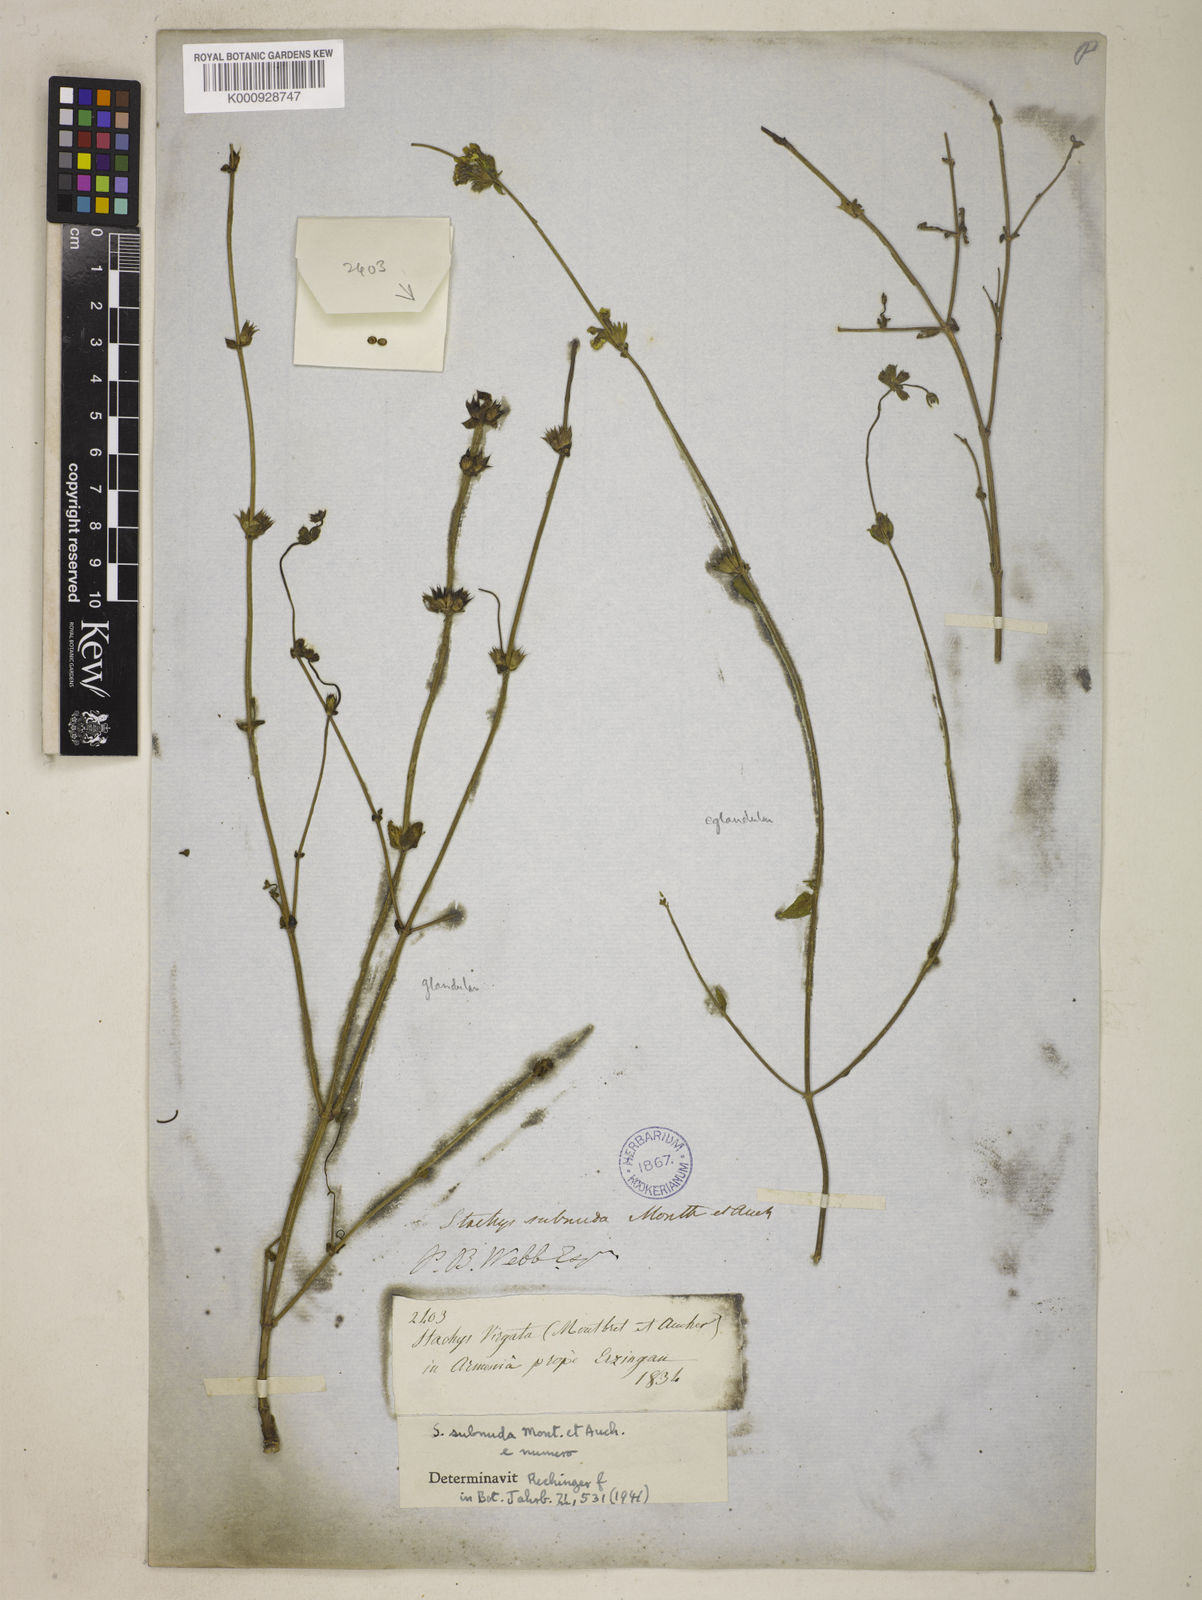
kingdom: Plantae
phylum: Tracheophyta
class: Magnoliopsida
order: Lamiales
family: Lamiaceae
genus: Stachys
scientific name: Stachys subnuda
